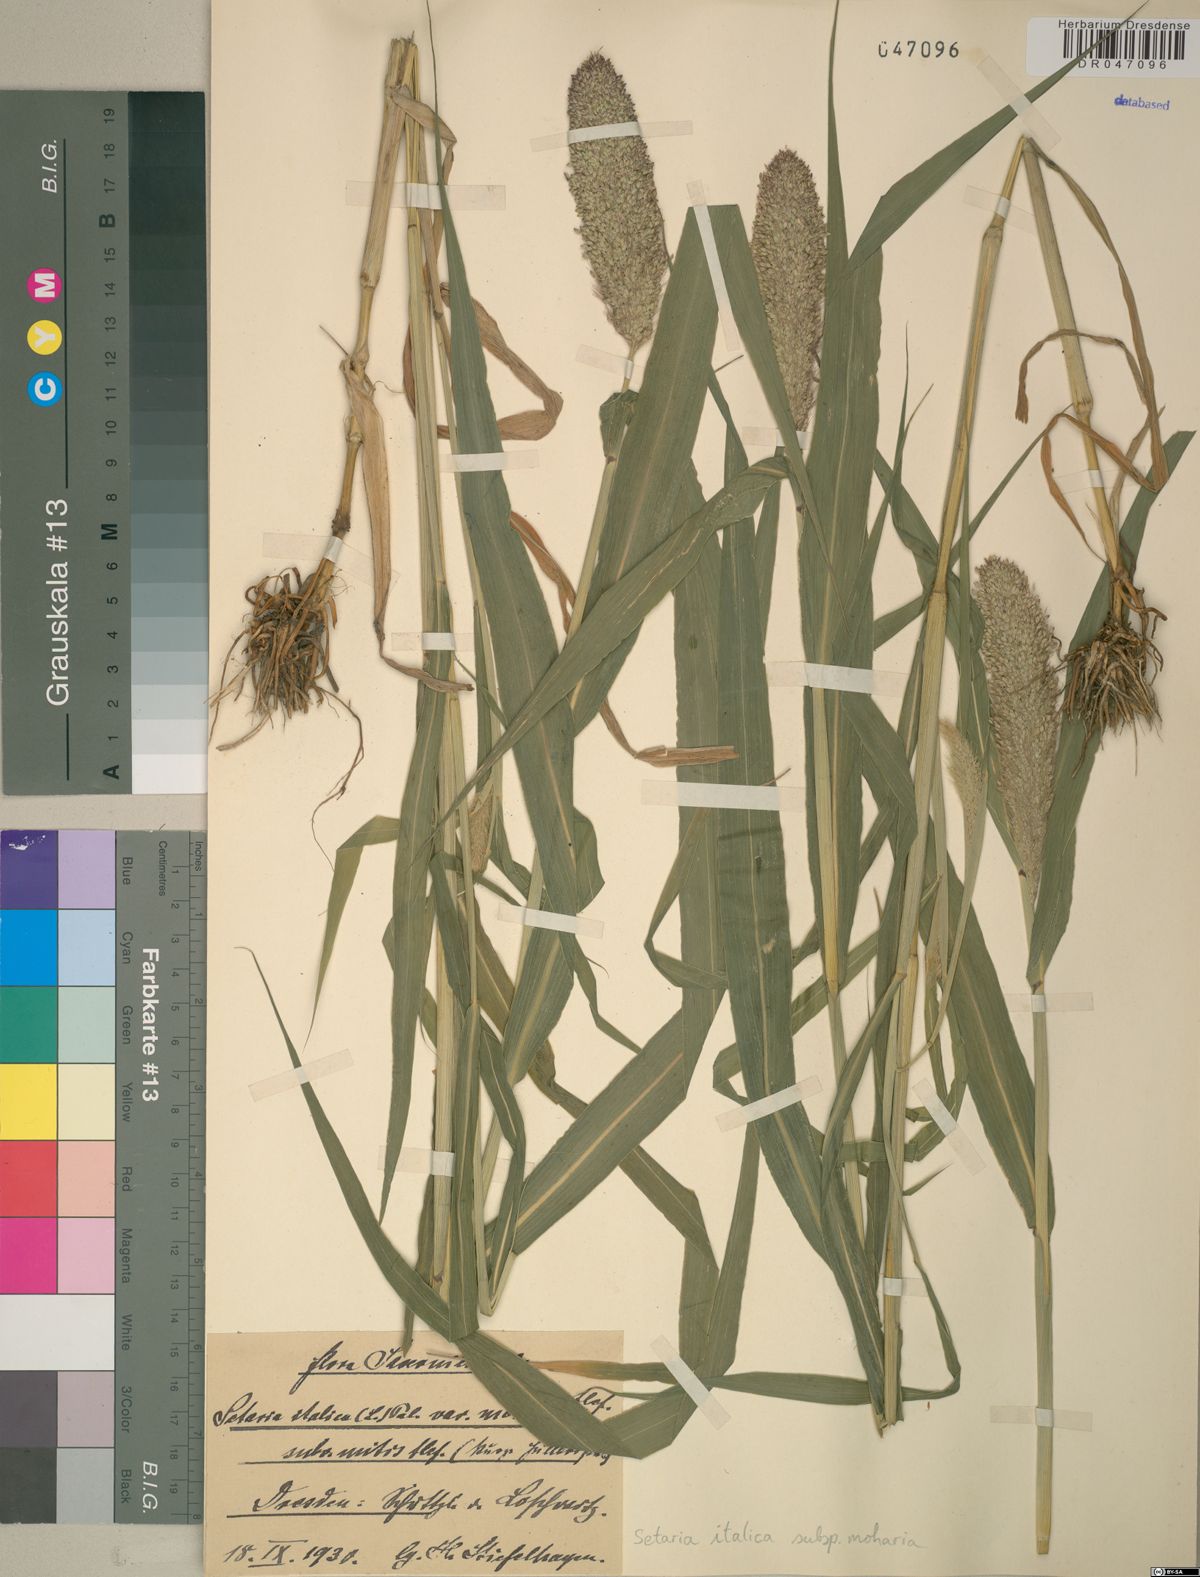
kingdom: Plantae
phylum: Tracheophyta
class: Liliopsida
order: Poales
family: Poaceae
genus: Setaria
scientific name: Setaria italica
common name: Foxtail bristle-grass
